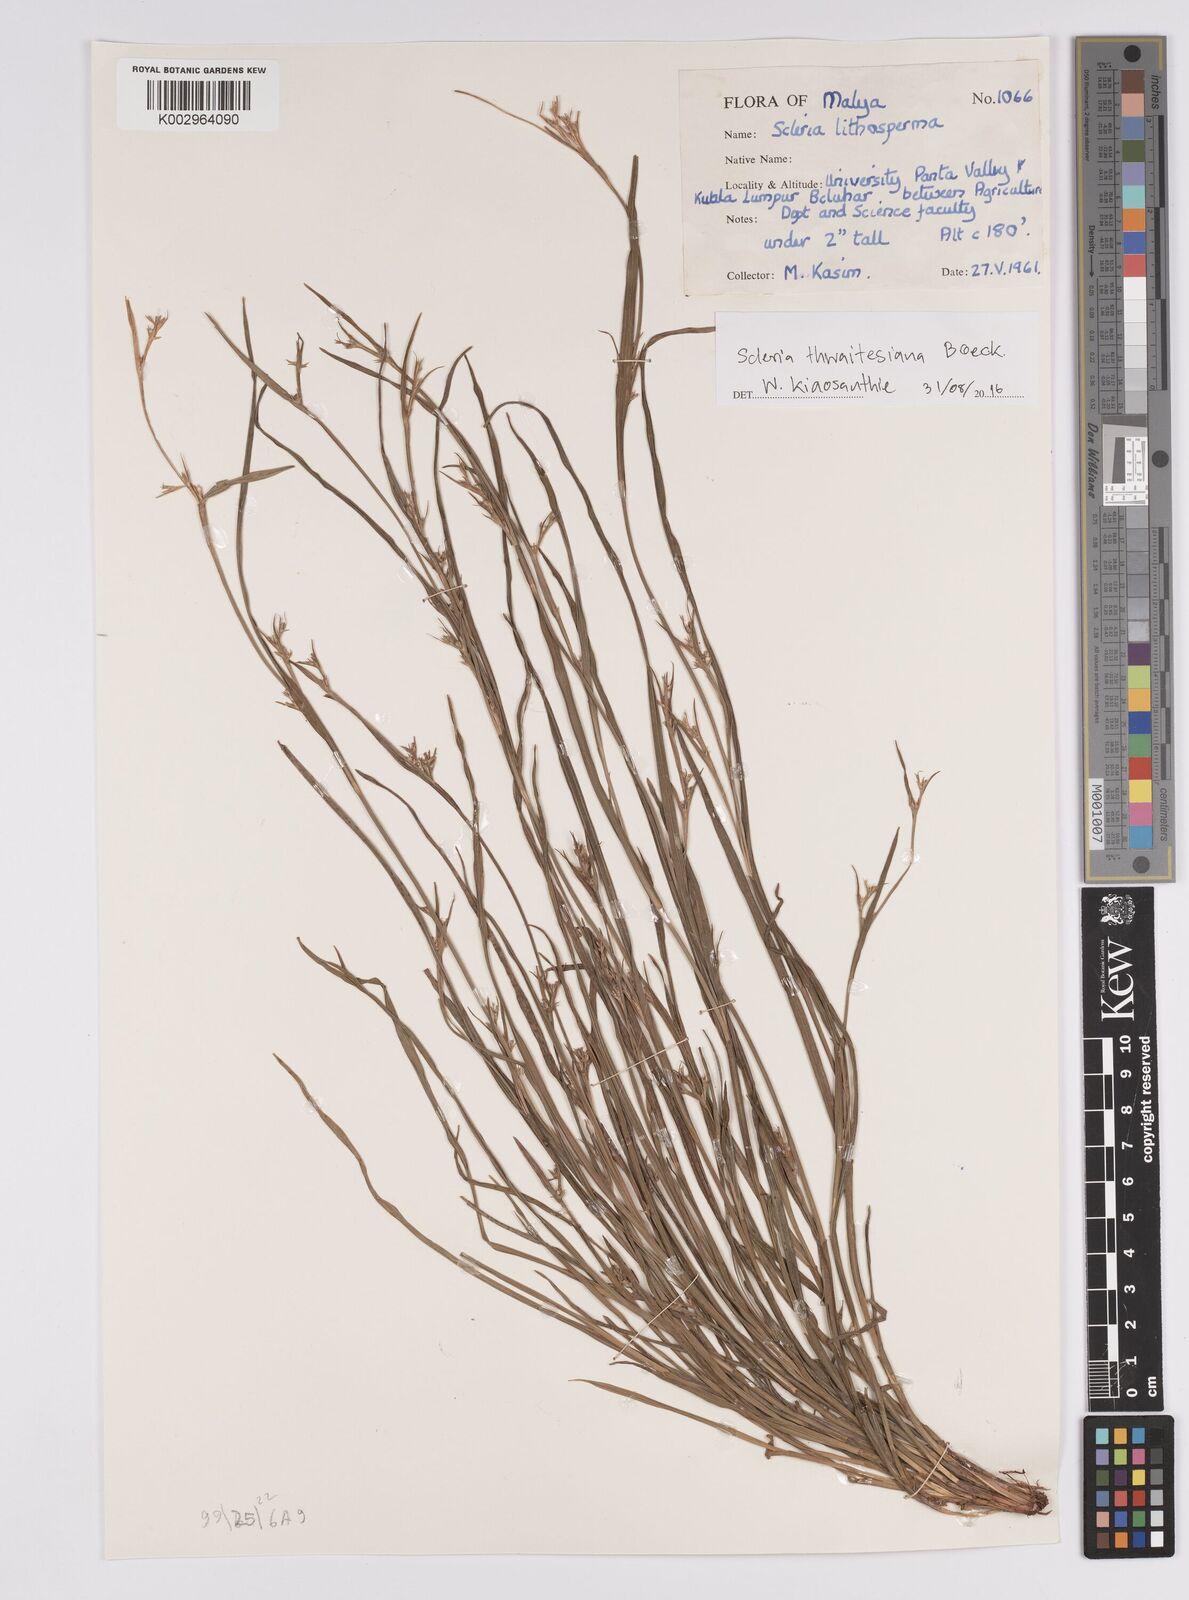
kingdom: Plantae
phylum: Tracheophyta
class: Liliopsida
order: Poales
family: Cyperaceae
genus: Scleria
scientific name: Scleria purpurascens
